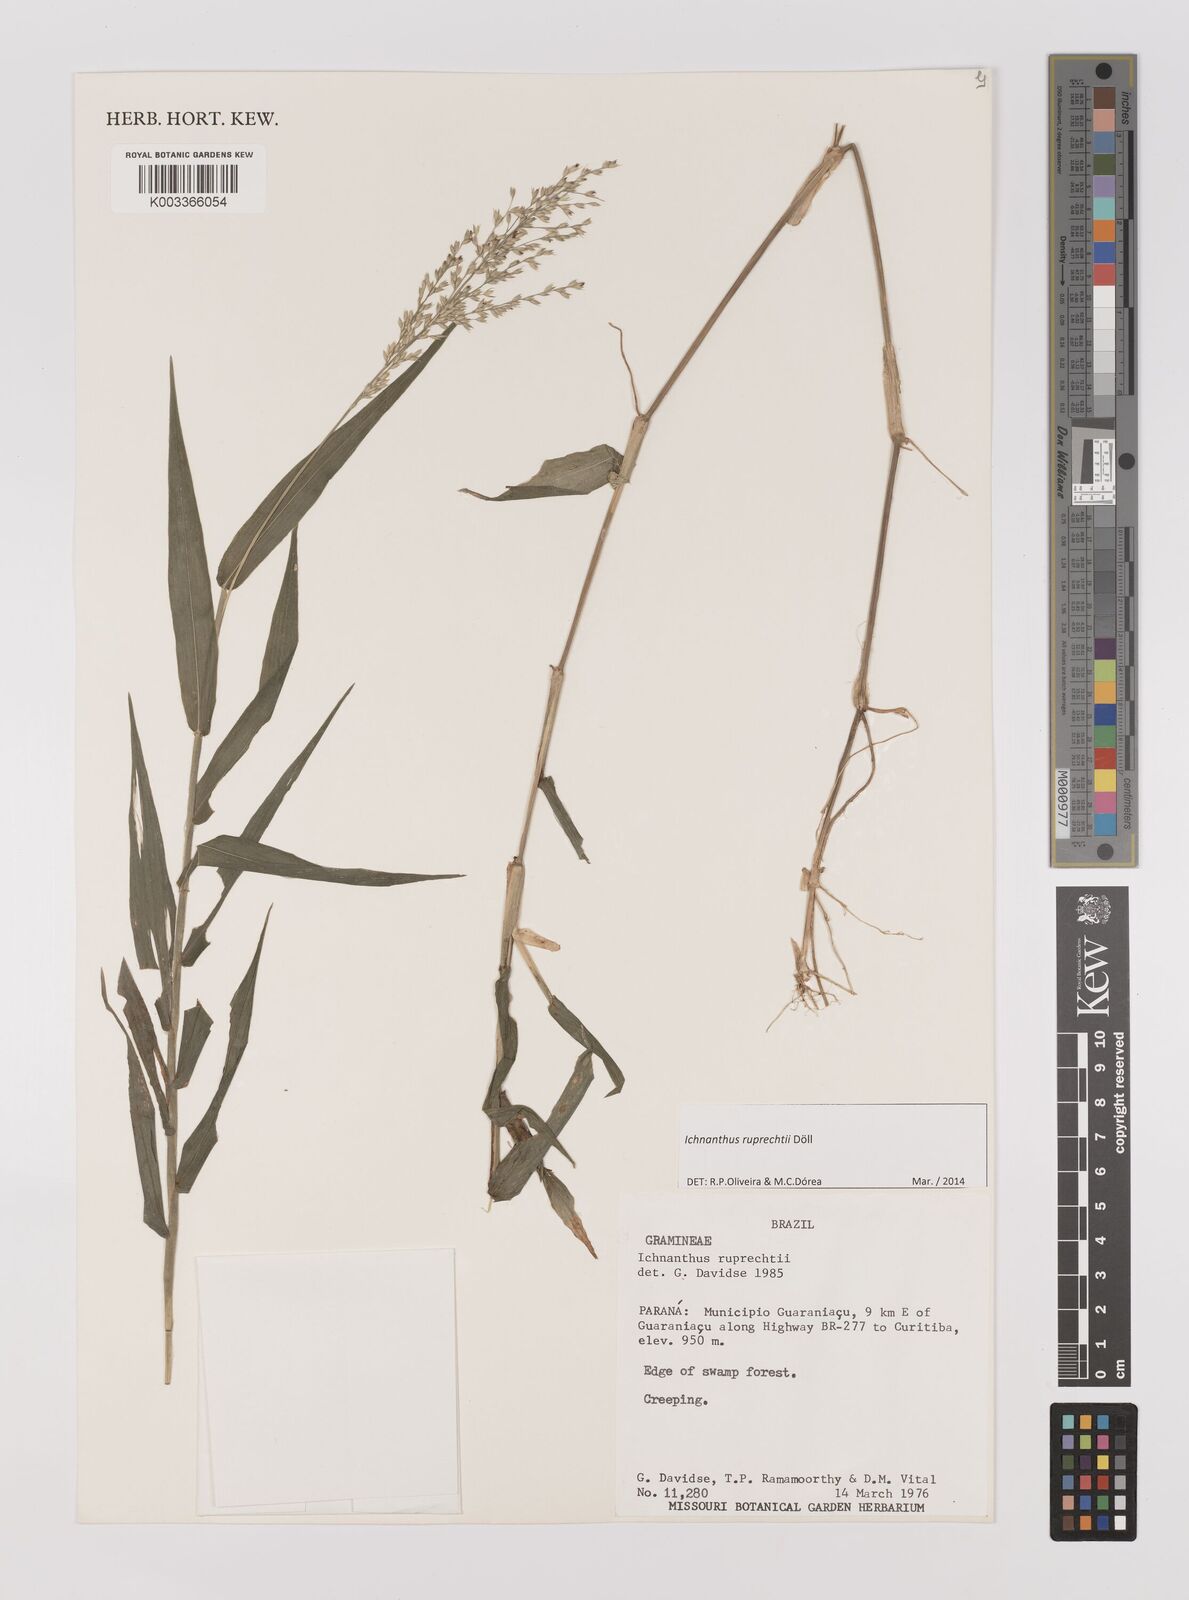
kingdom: Plantae
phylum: Tracheophyta
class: Liliopsida
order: Poales
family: Poaceae
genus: Ichnanthus
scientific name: Ichnanthus ruprechtii
